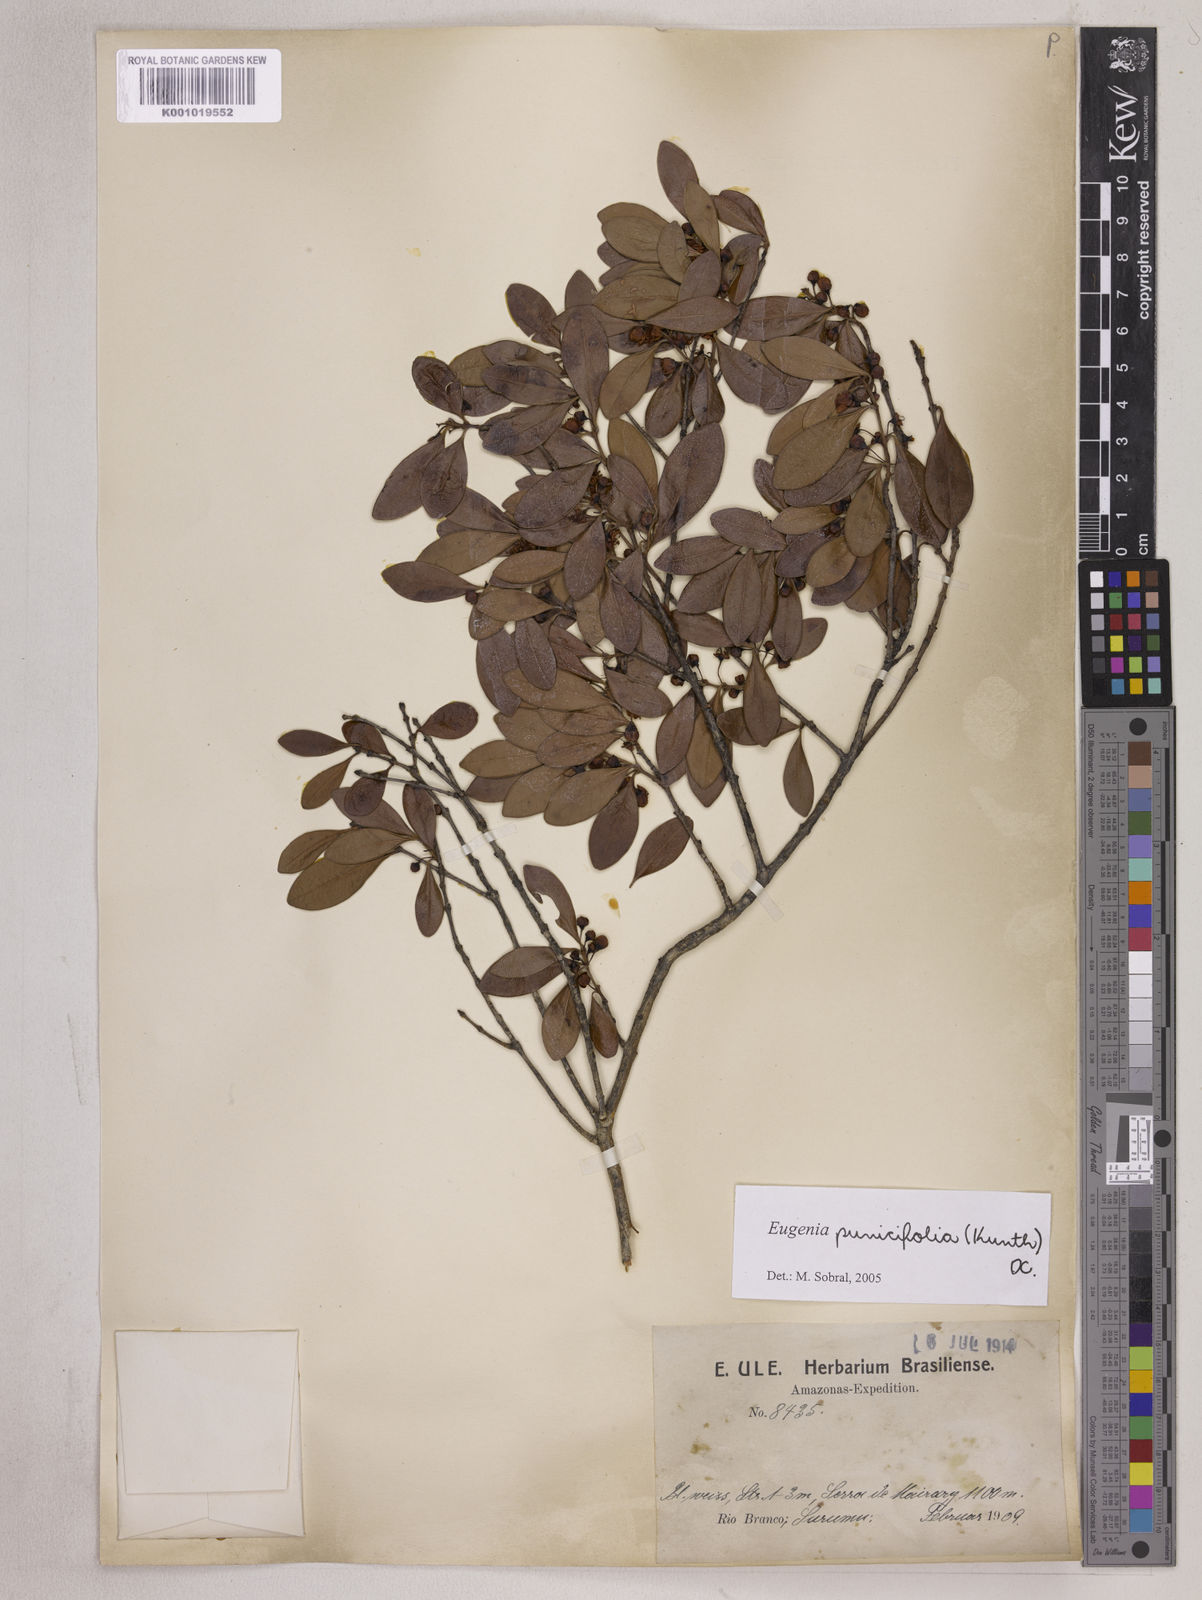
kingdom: Plantae
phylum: Tracheophyta
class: Magnoliopsida
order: Myrtales
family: Myrtaceae
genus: Eugenia
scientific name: Eugenia punicifolia
